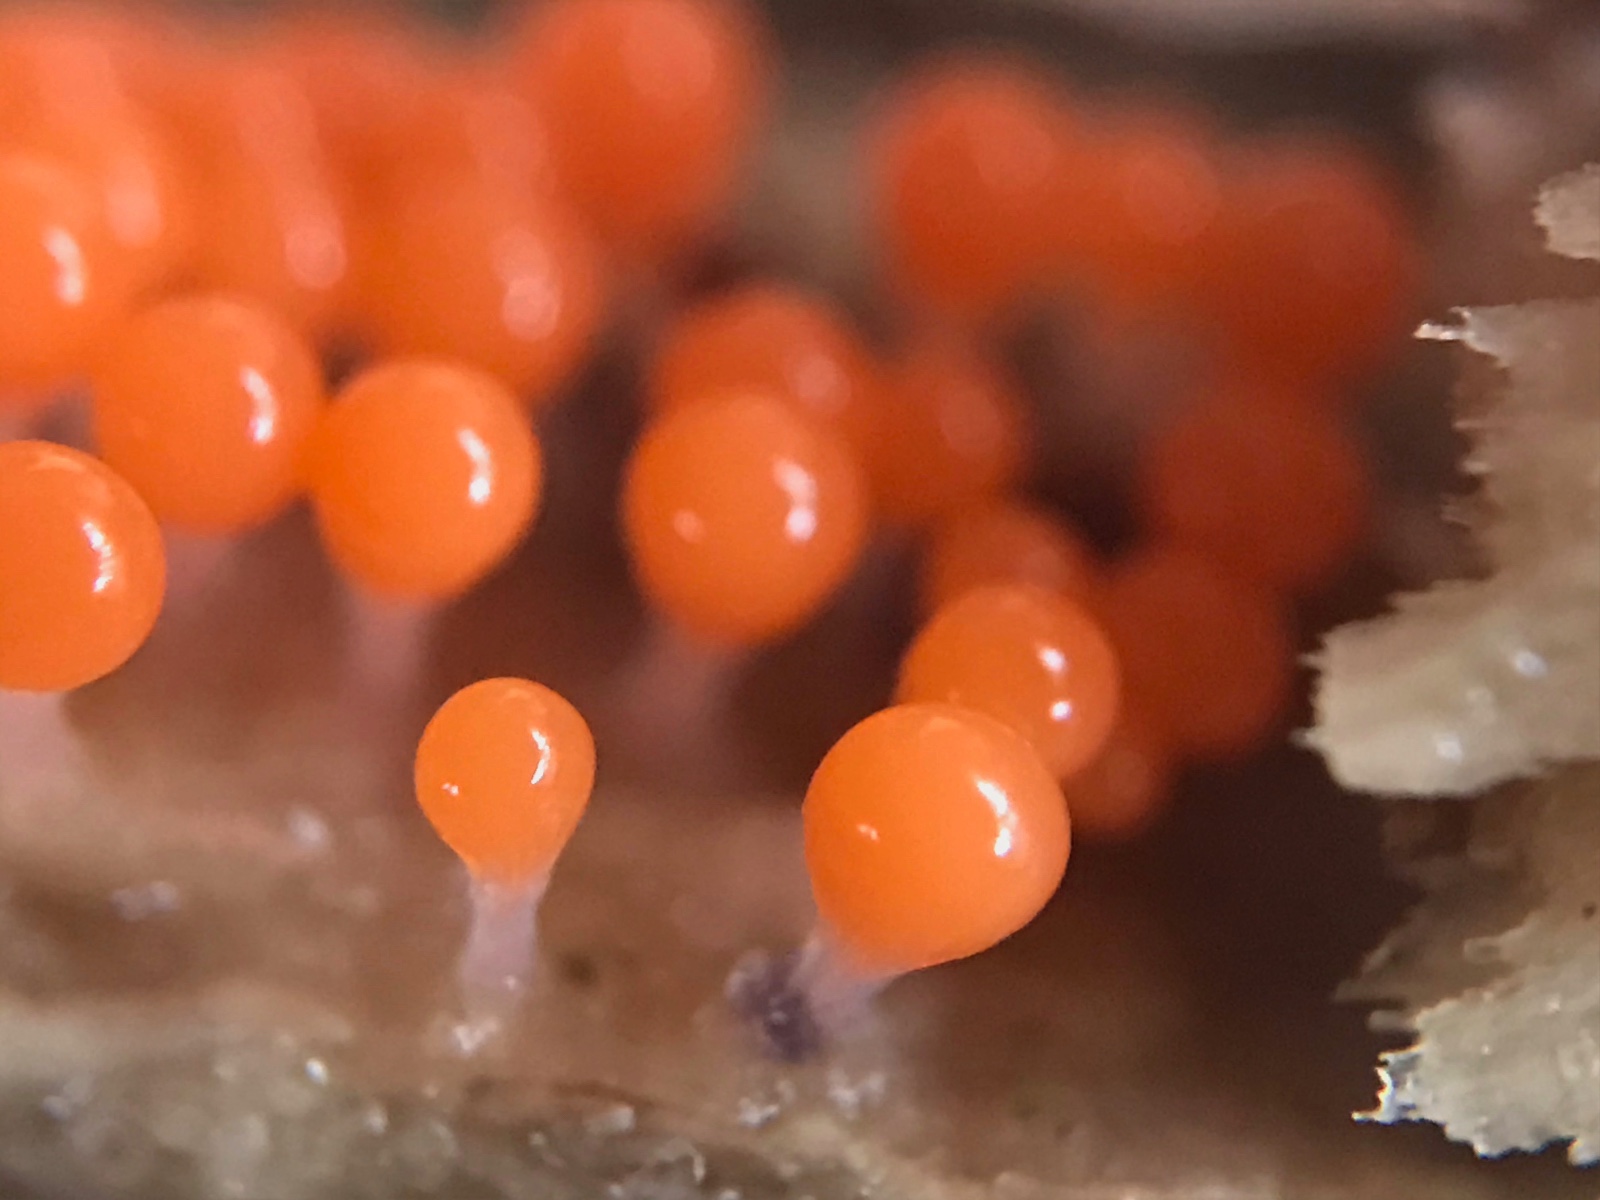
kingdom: Protozoa
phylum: Mycetozoa
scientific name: Mycetozoa
